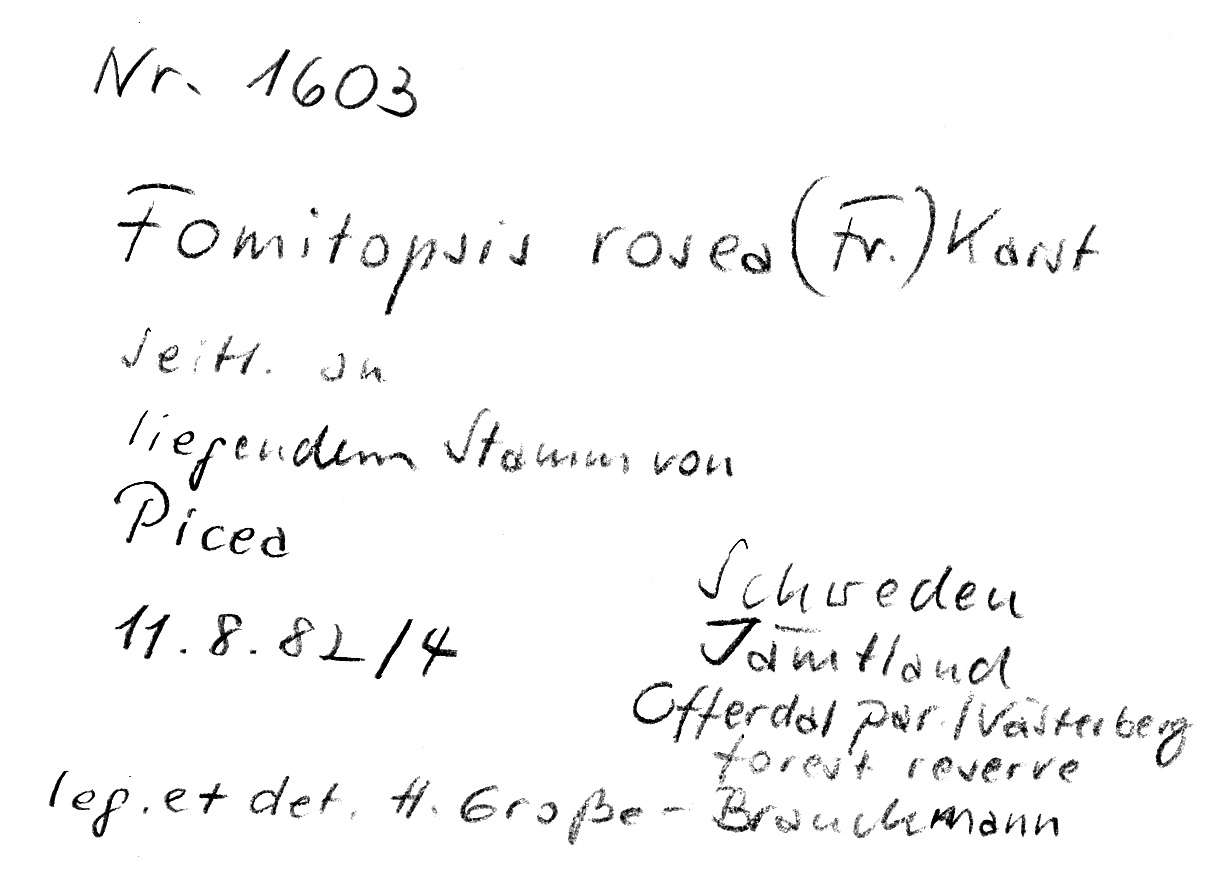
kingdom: Plantae
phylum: Tracheophyta
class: Pinopsida
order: Pinales
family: Pinaceae
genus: Picea
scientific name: Picea
